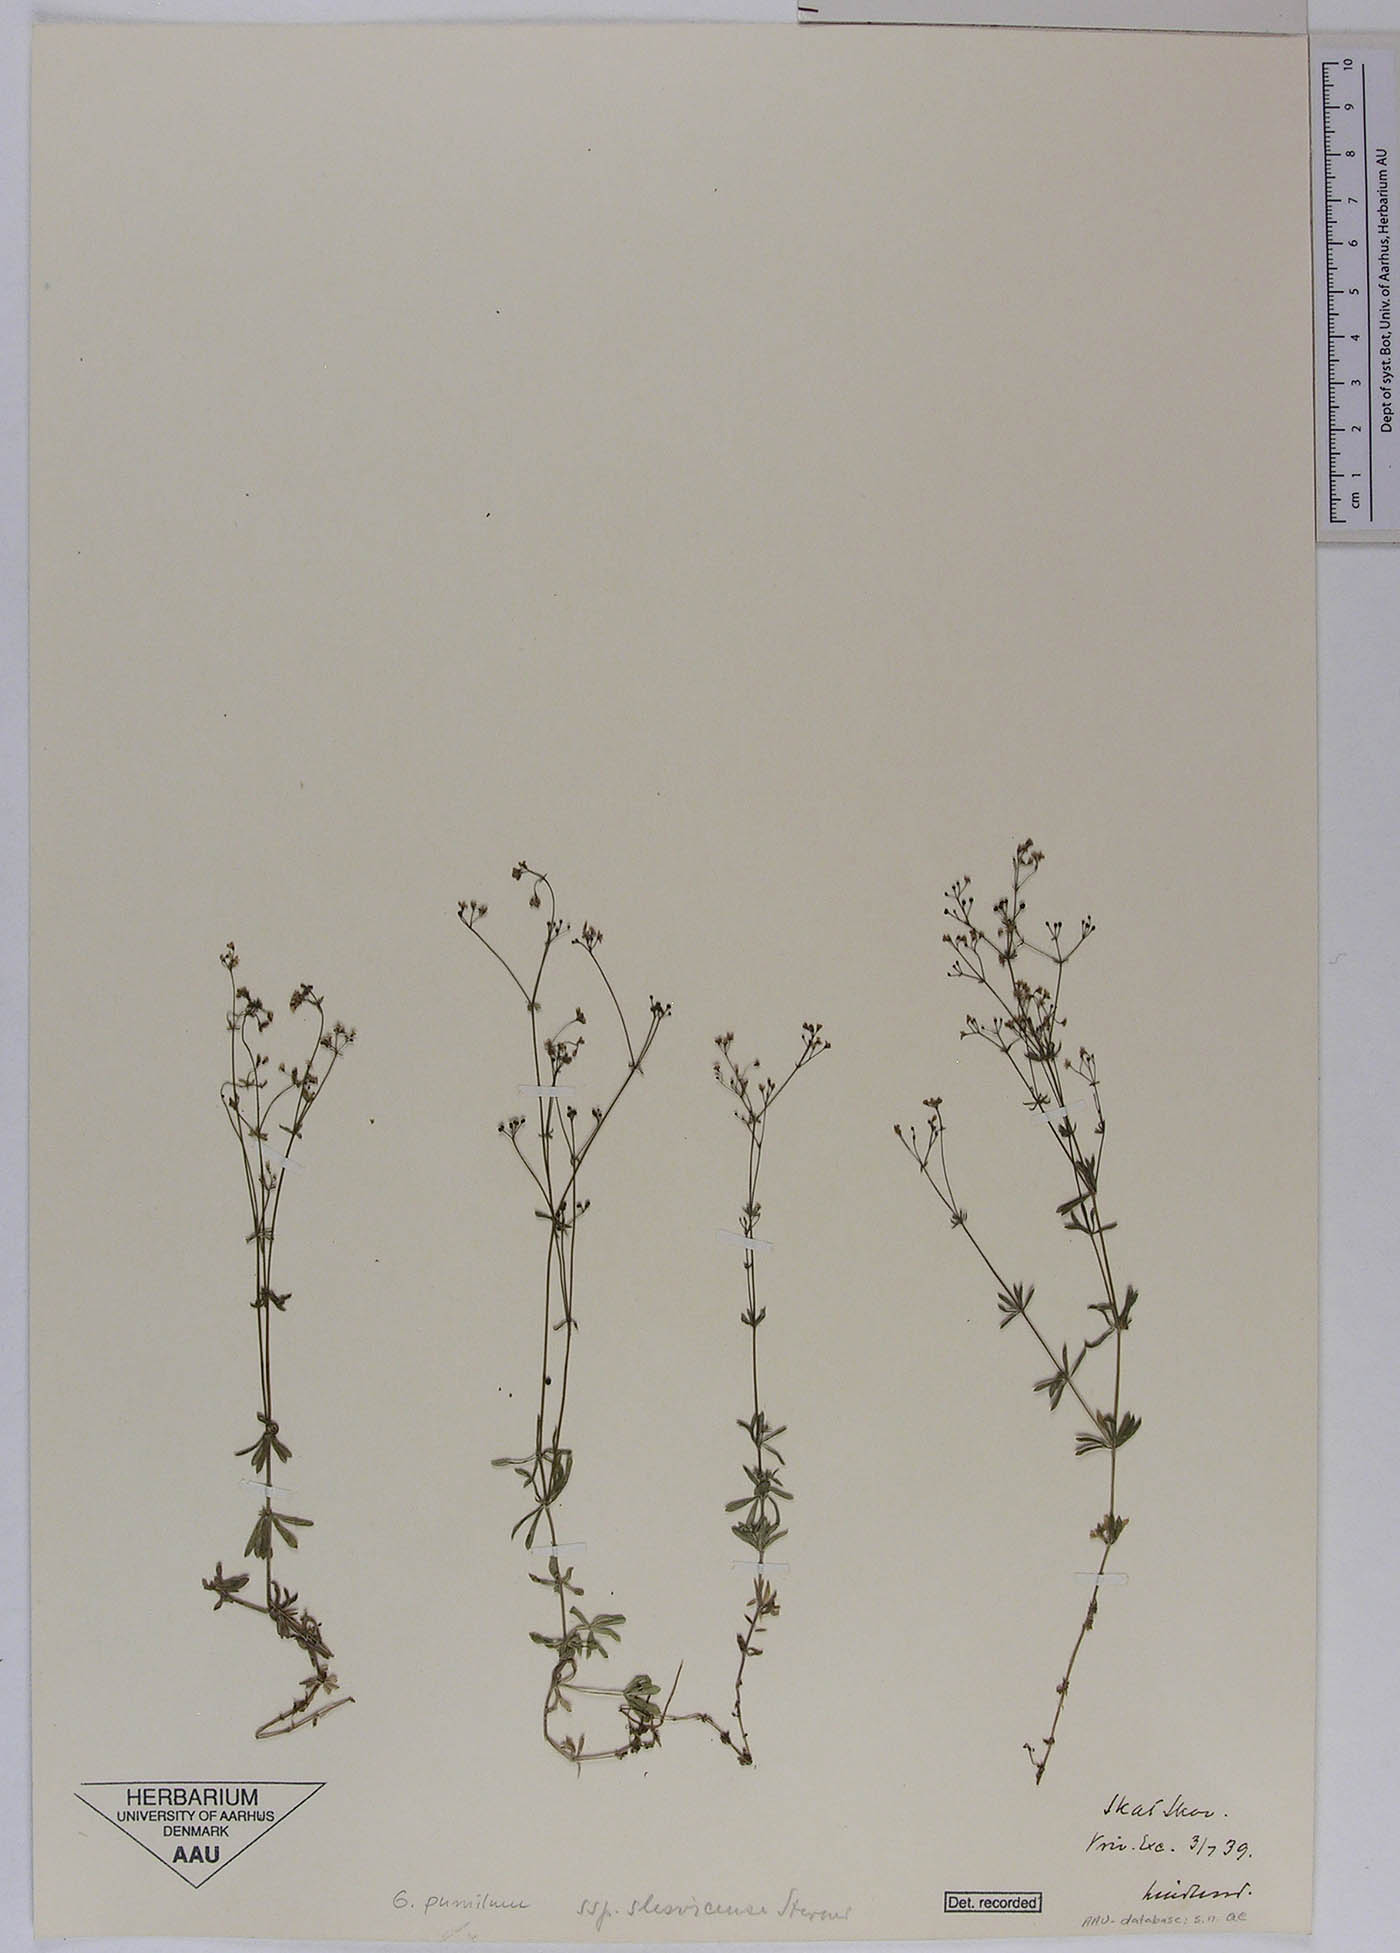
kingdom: Plantae
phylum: Tracheophyta
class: Magnoliopsida
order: Gentianales
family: Rubiaceae
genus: Galium
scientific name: Galium pusillum
